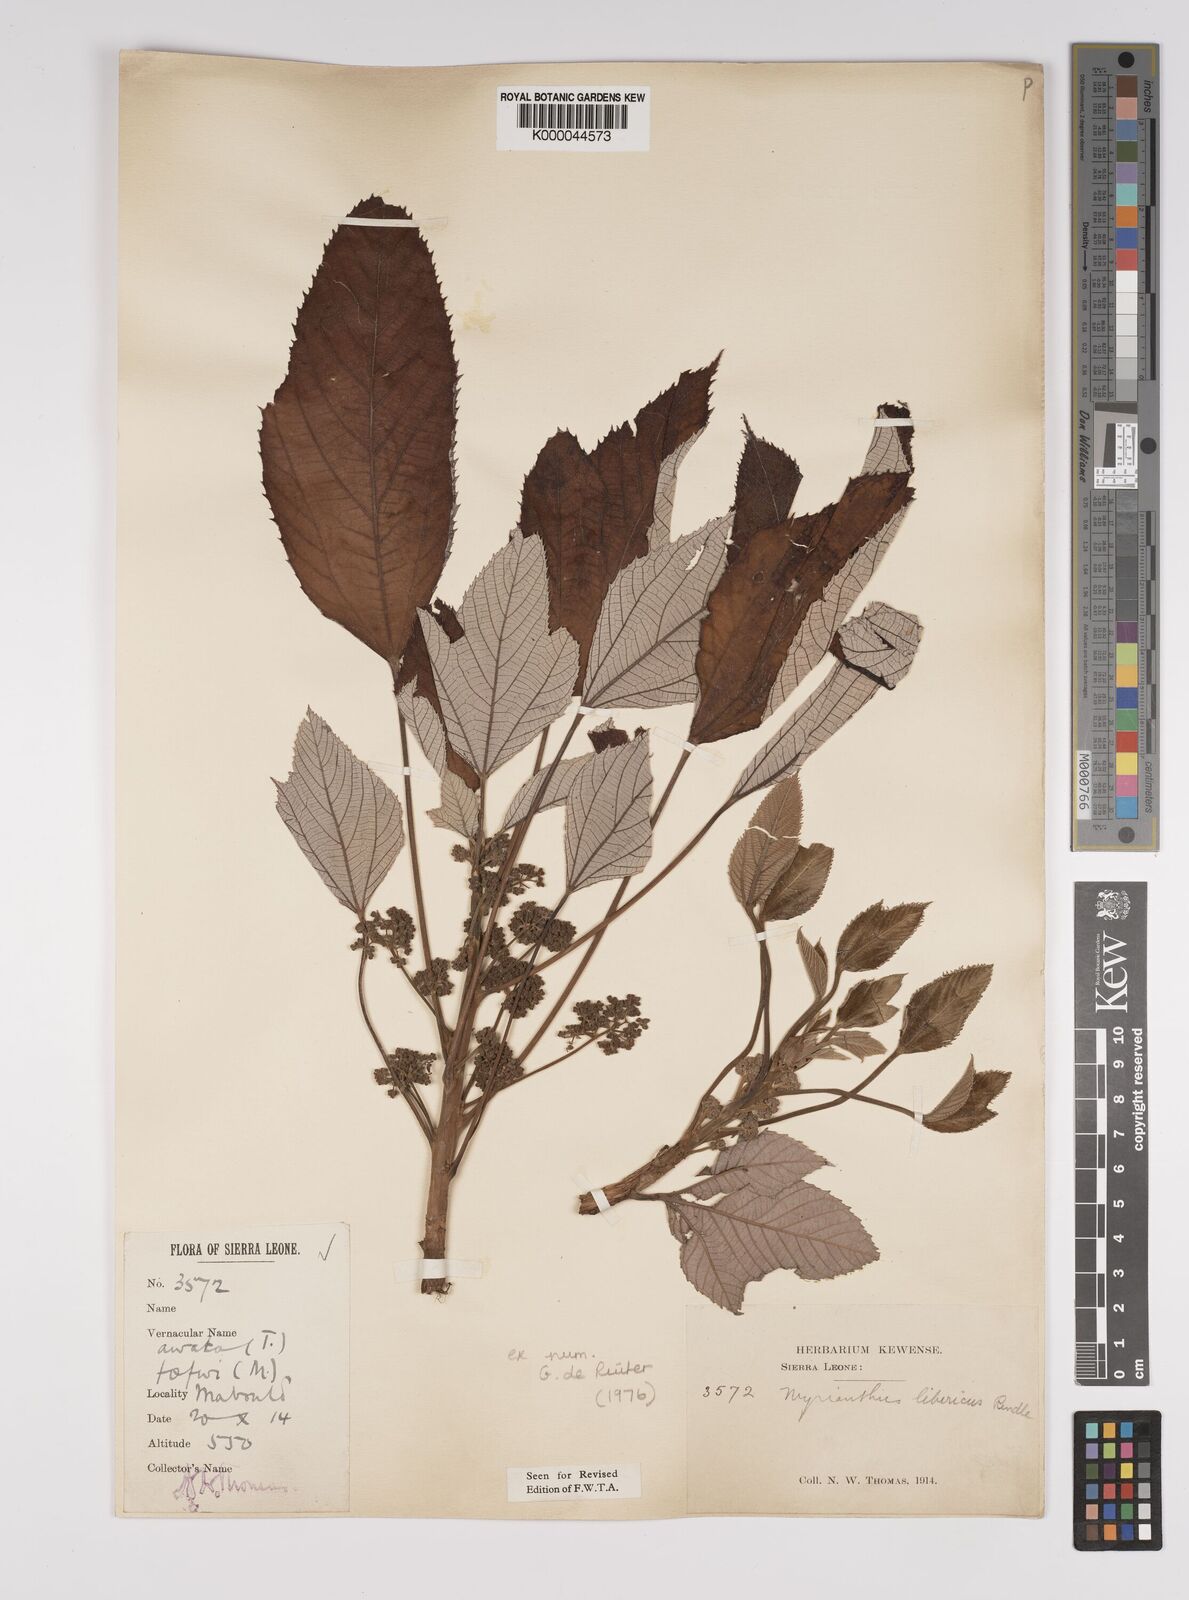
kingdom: Plantae
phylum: Tracheophyta
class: Magnoliopsida
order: Rosales
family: Urticaceae
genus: Myrianthus
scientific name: Myrianthus libericus
